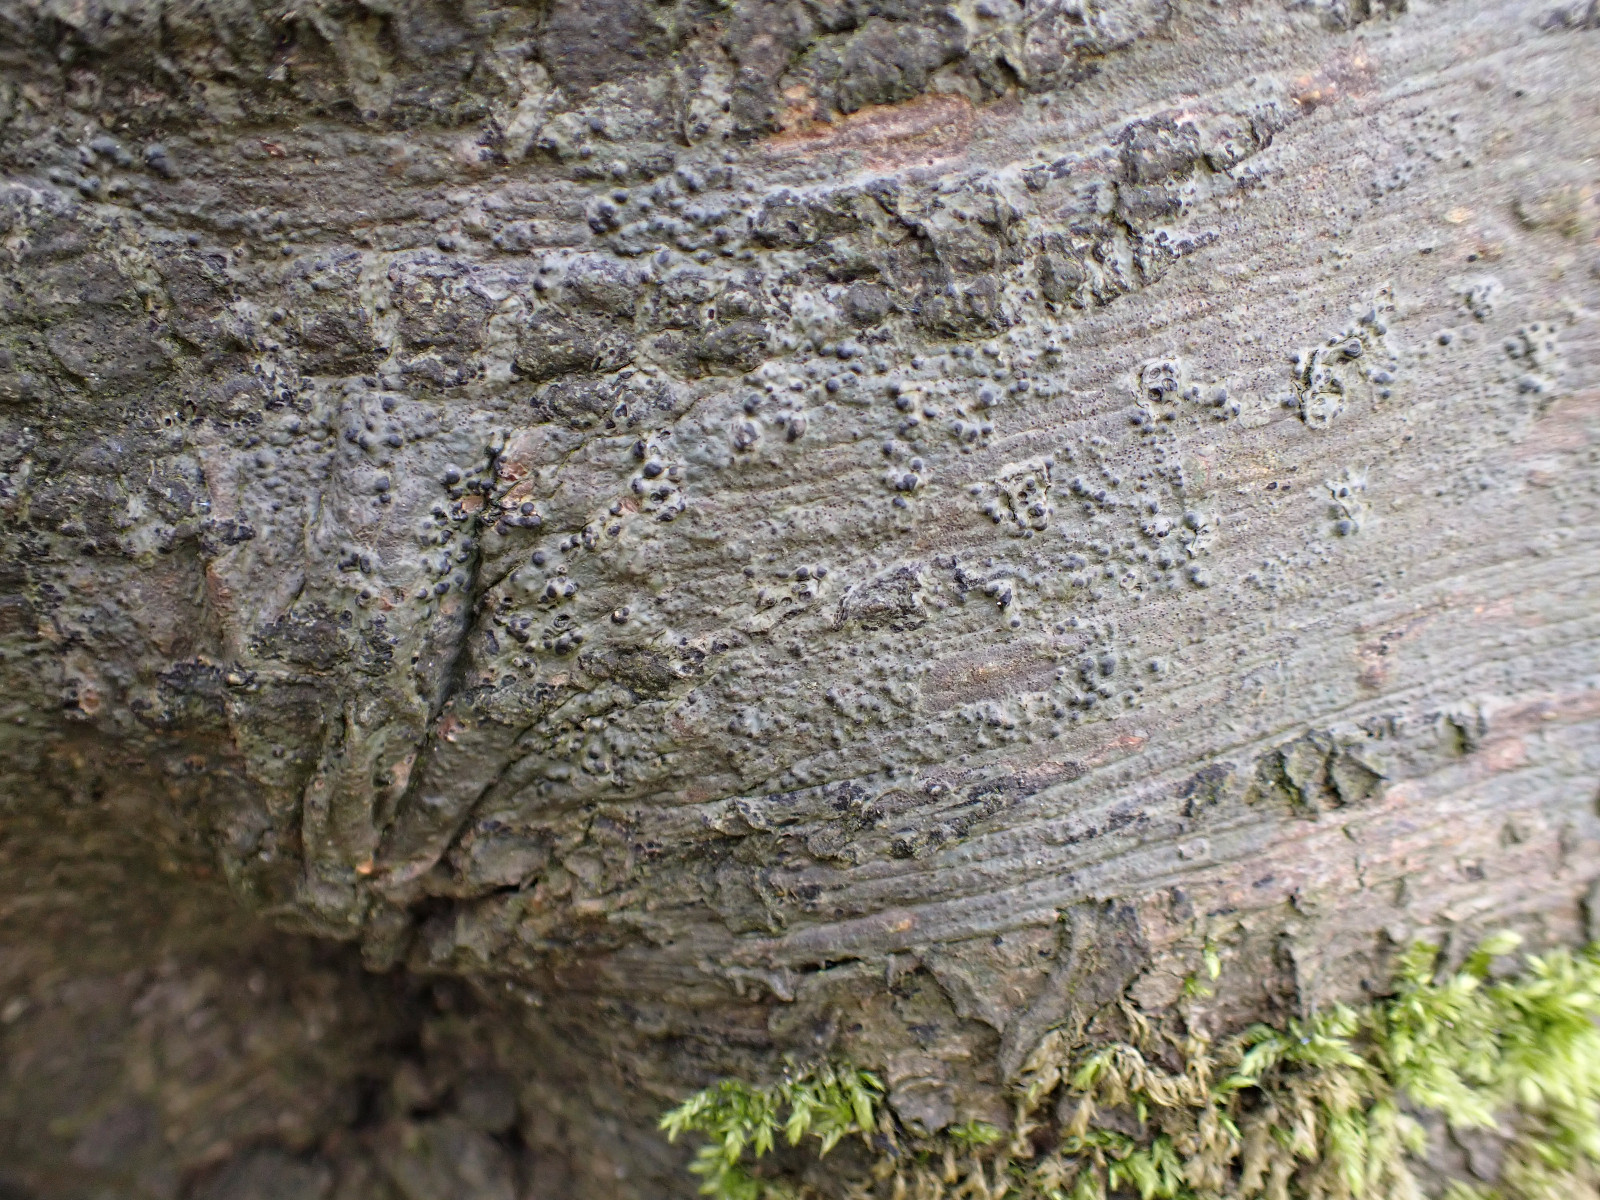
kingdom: Fungi
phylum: Ascomycota
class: Eurotiomycetes
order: Pyrenulales
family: Pyrenulaceae
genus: Pyrenula
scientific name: Pyrenula nitida
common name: glinsende kernelav
